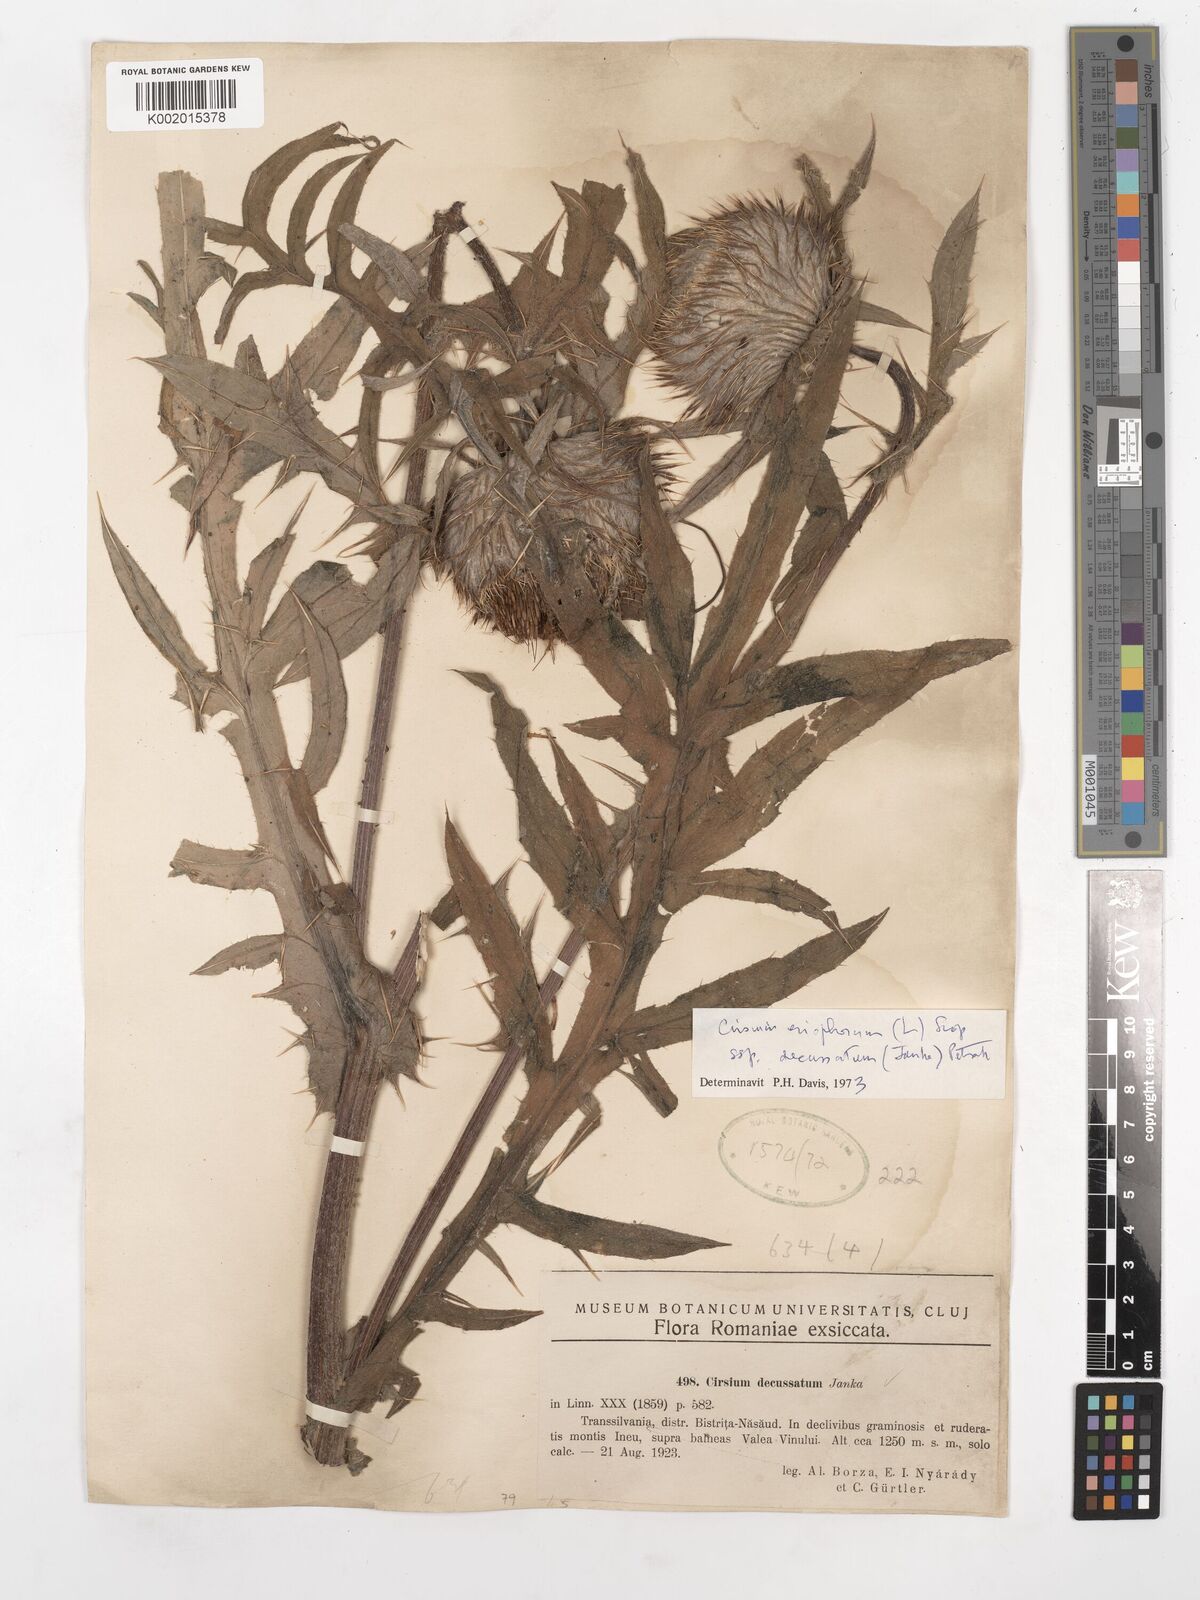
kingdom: Plantae
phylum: Tracheophyta
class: Magnoliopsida
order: Asterales
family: Asteraceae
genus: Lophiolepis
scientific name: Lophiolepis decussata
